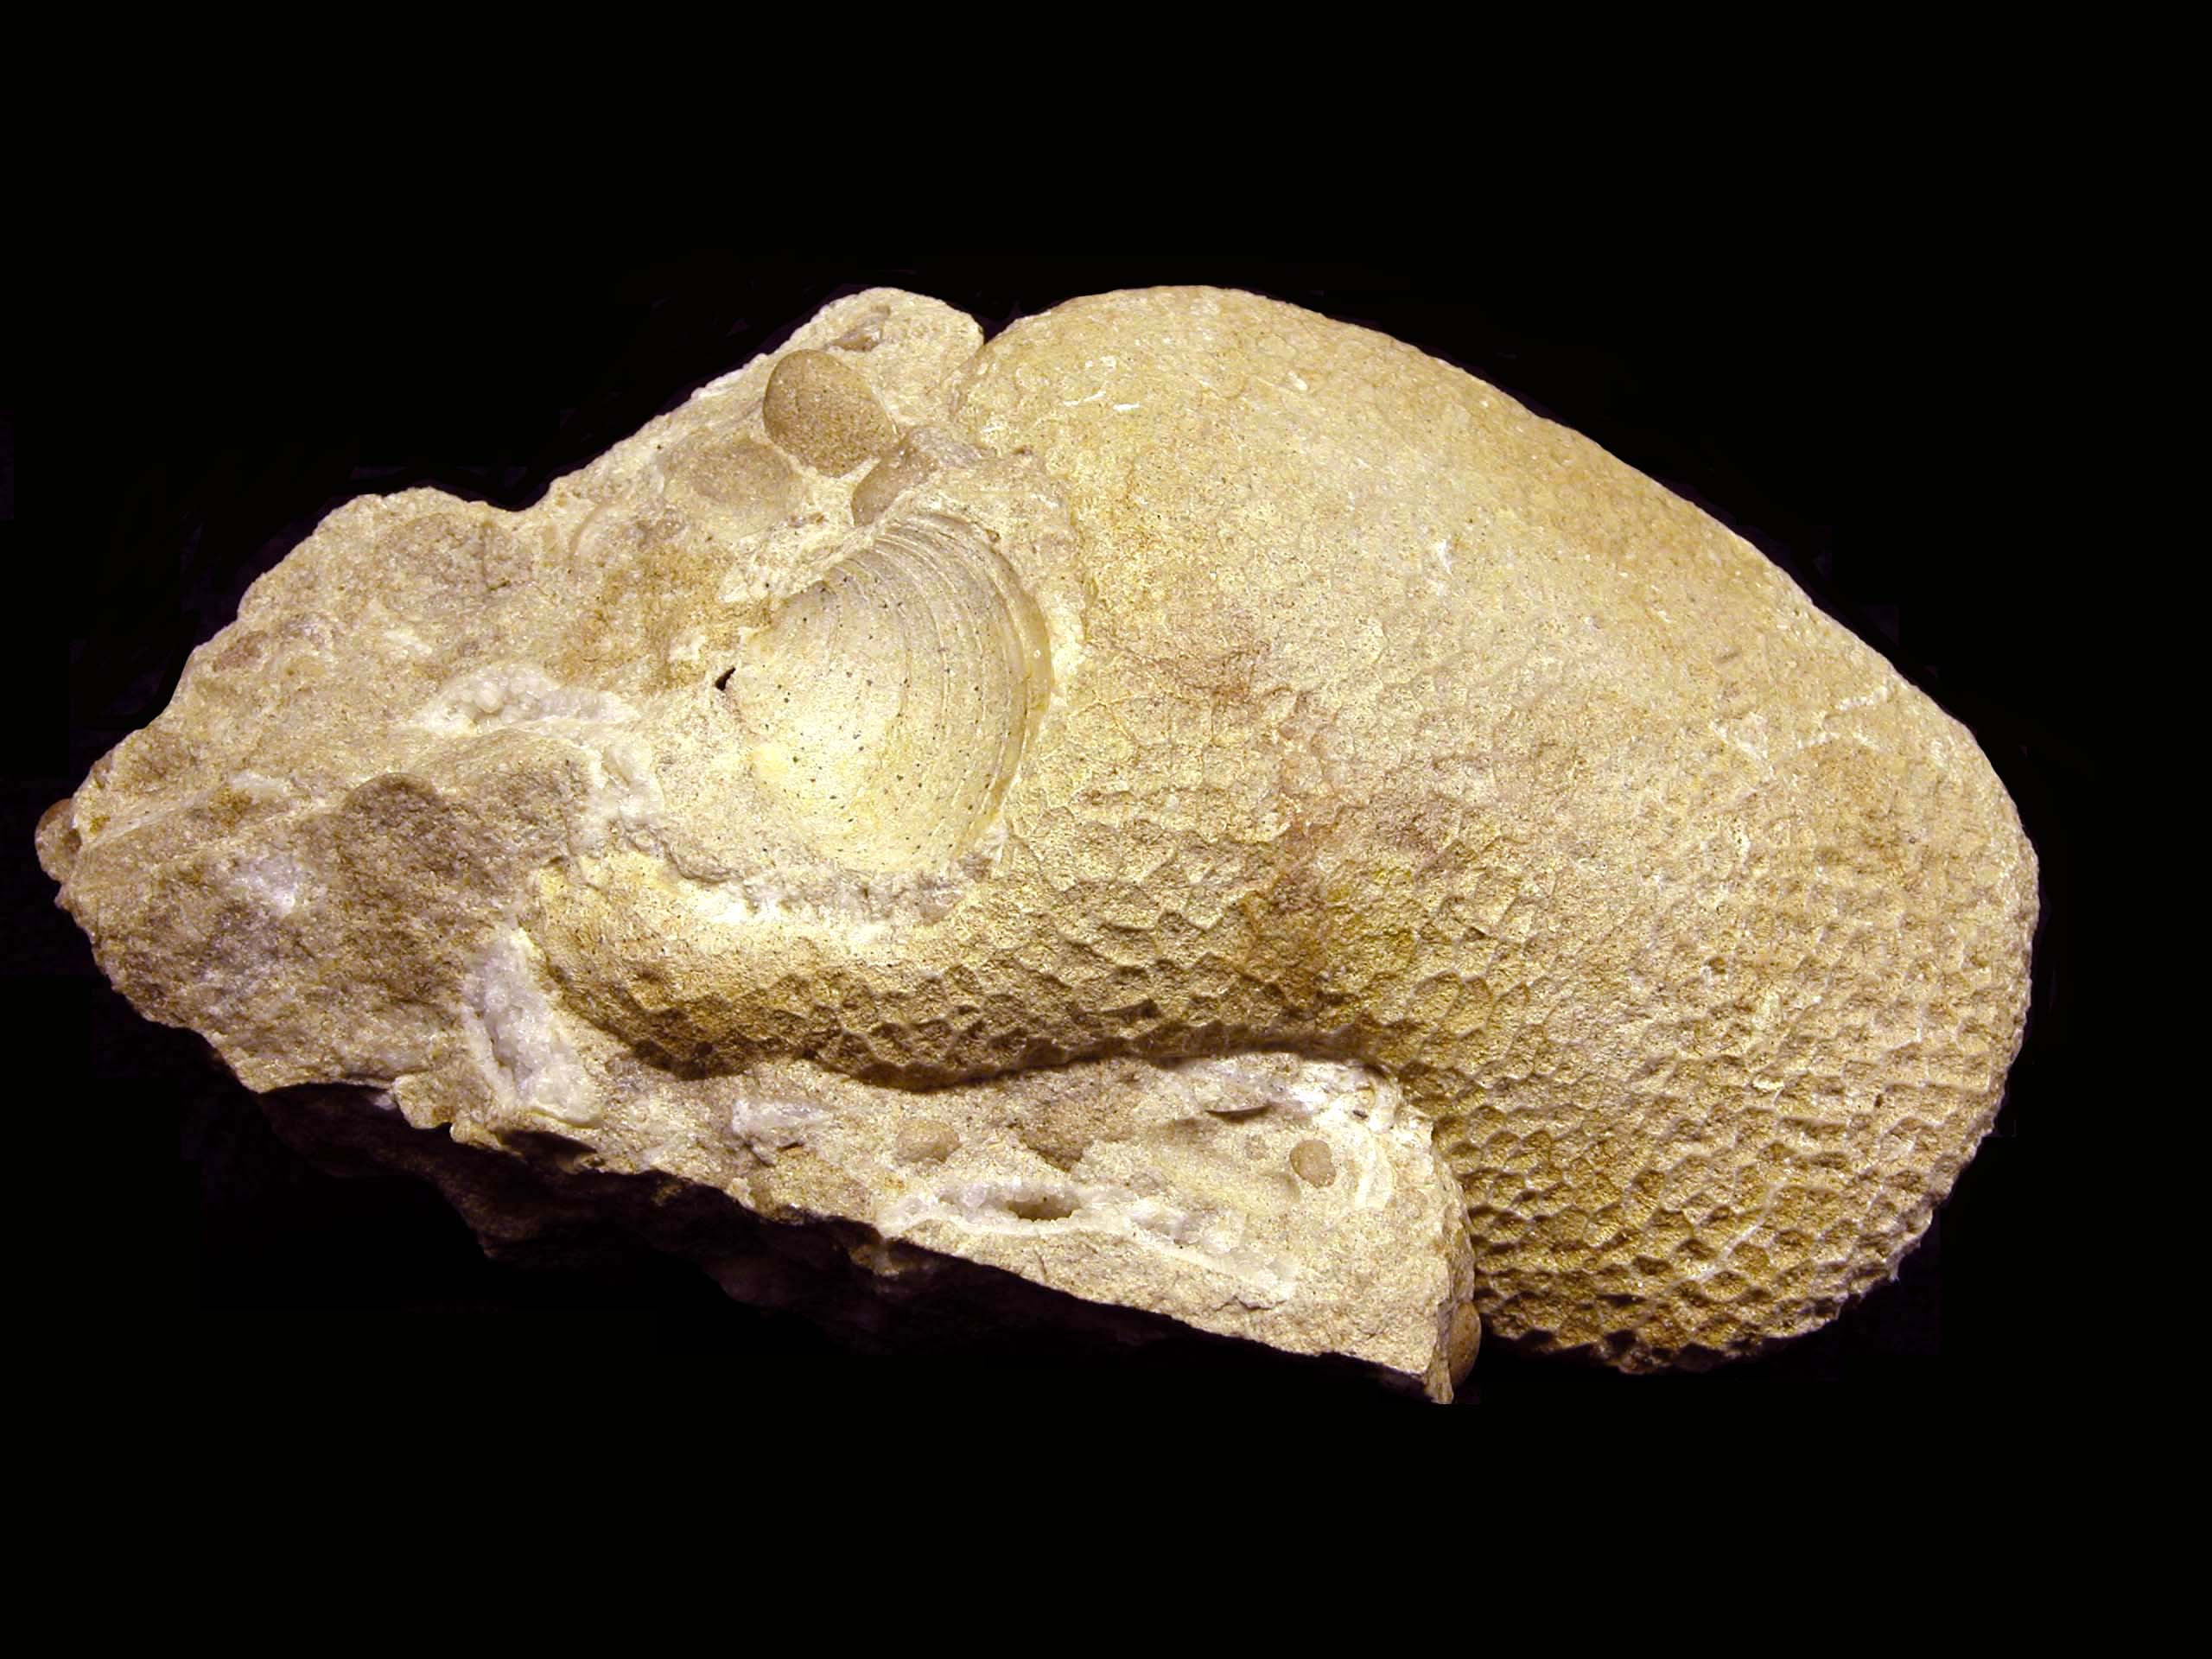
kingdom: Animalia
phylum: Cnidaria
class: Anthozoa
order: Scleractinia
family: Pamiroseriidae
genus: Rhaetiastraea
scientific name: Rhaetiastraea
